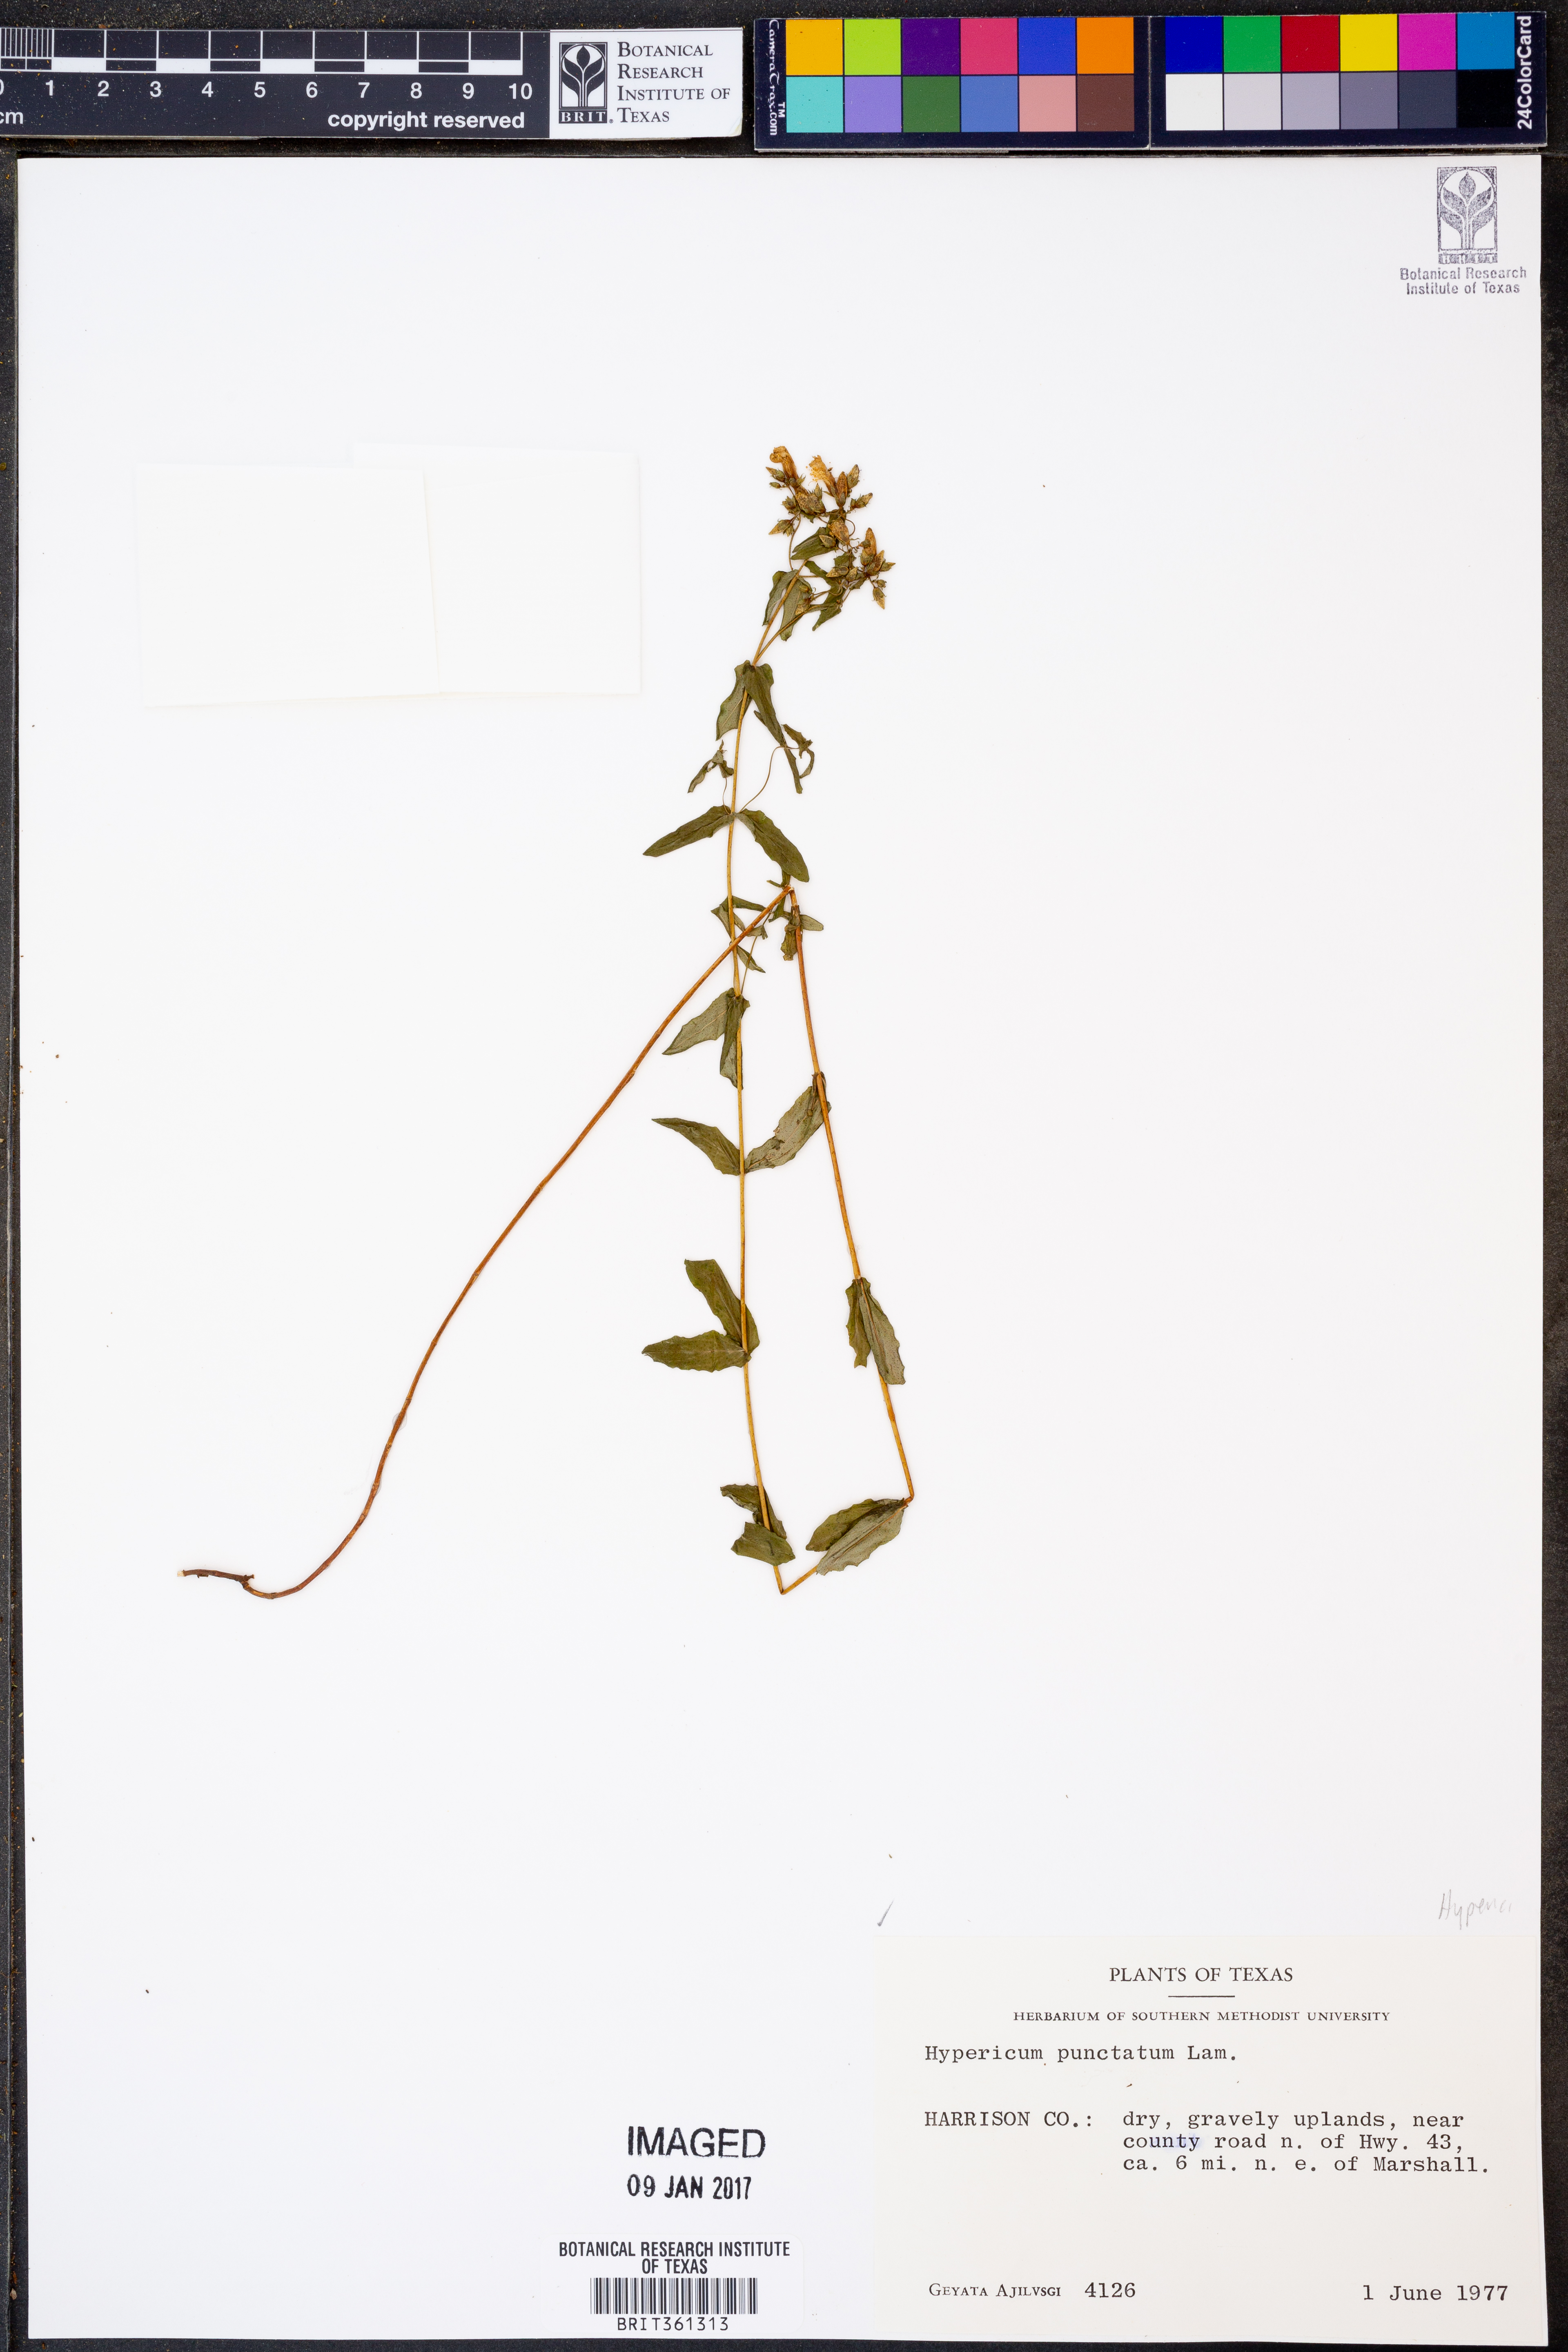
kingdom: Plantae
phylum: Tracheophyta
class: Magnoliopsida
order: Malpighiales
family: Hypericaceae
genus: Hypericum
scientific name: Hypericum punctatum
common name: Spotted st. john's-wort
